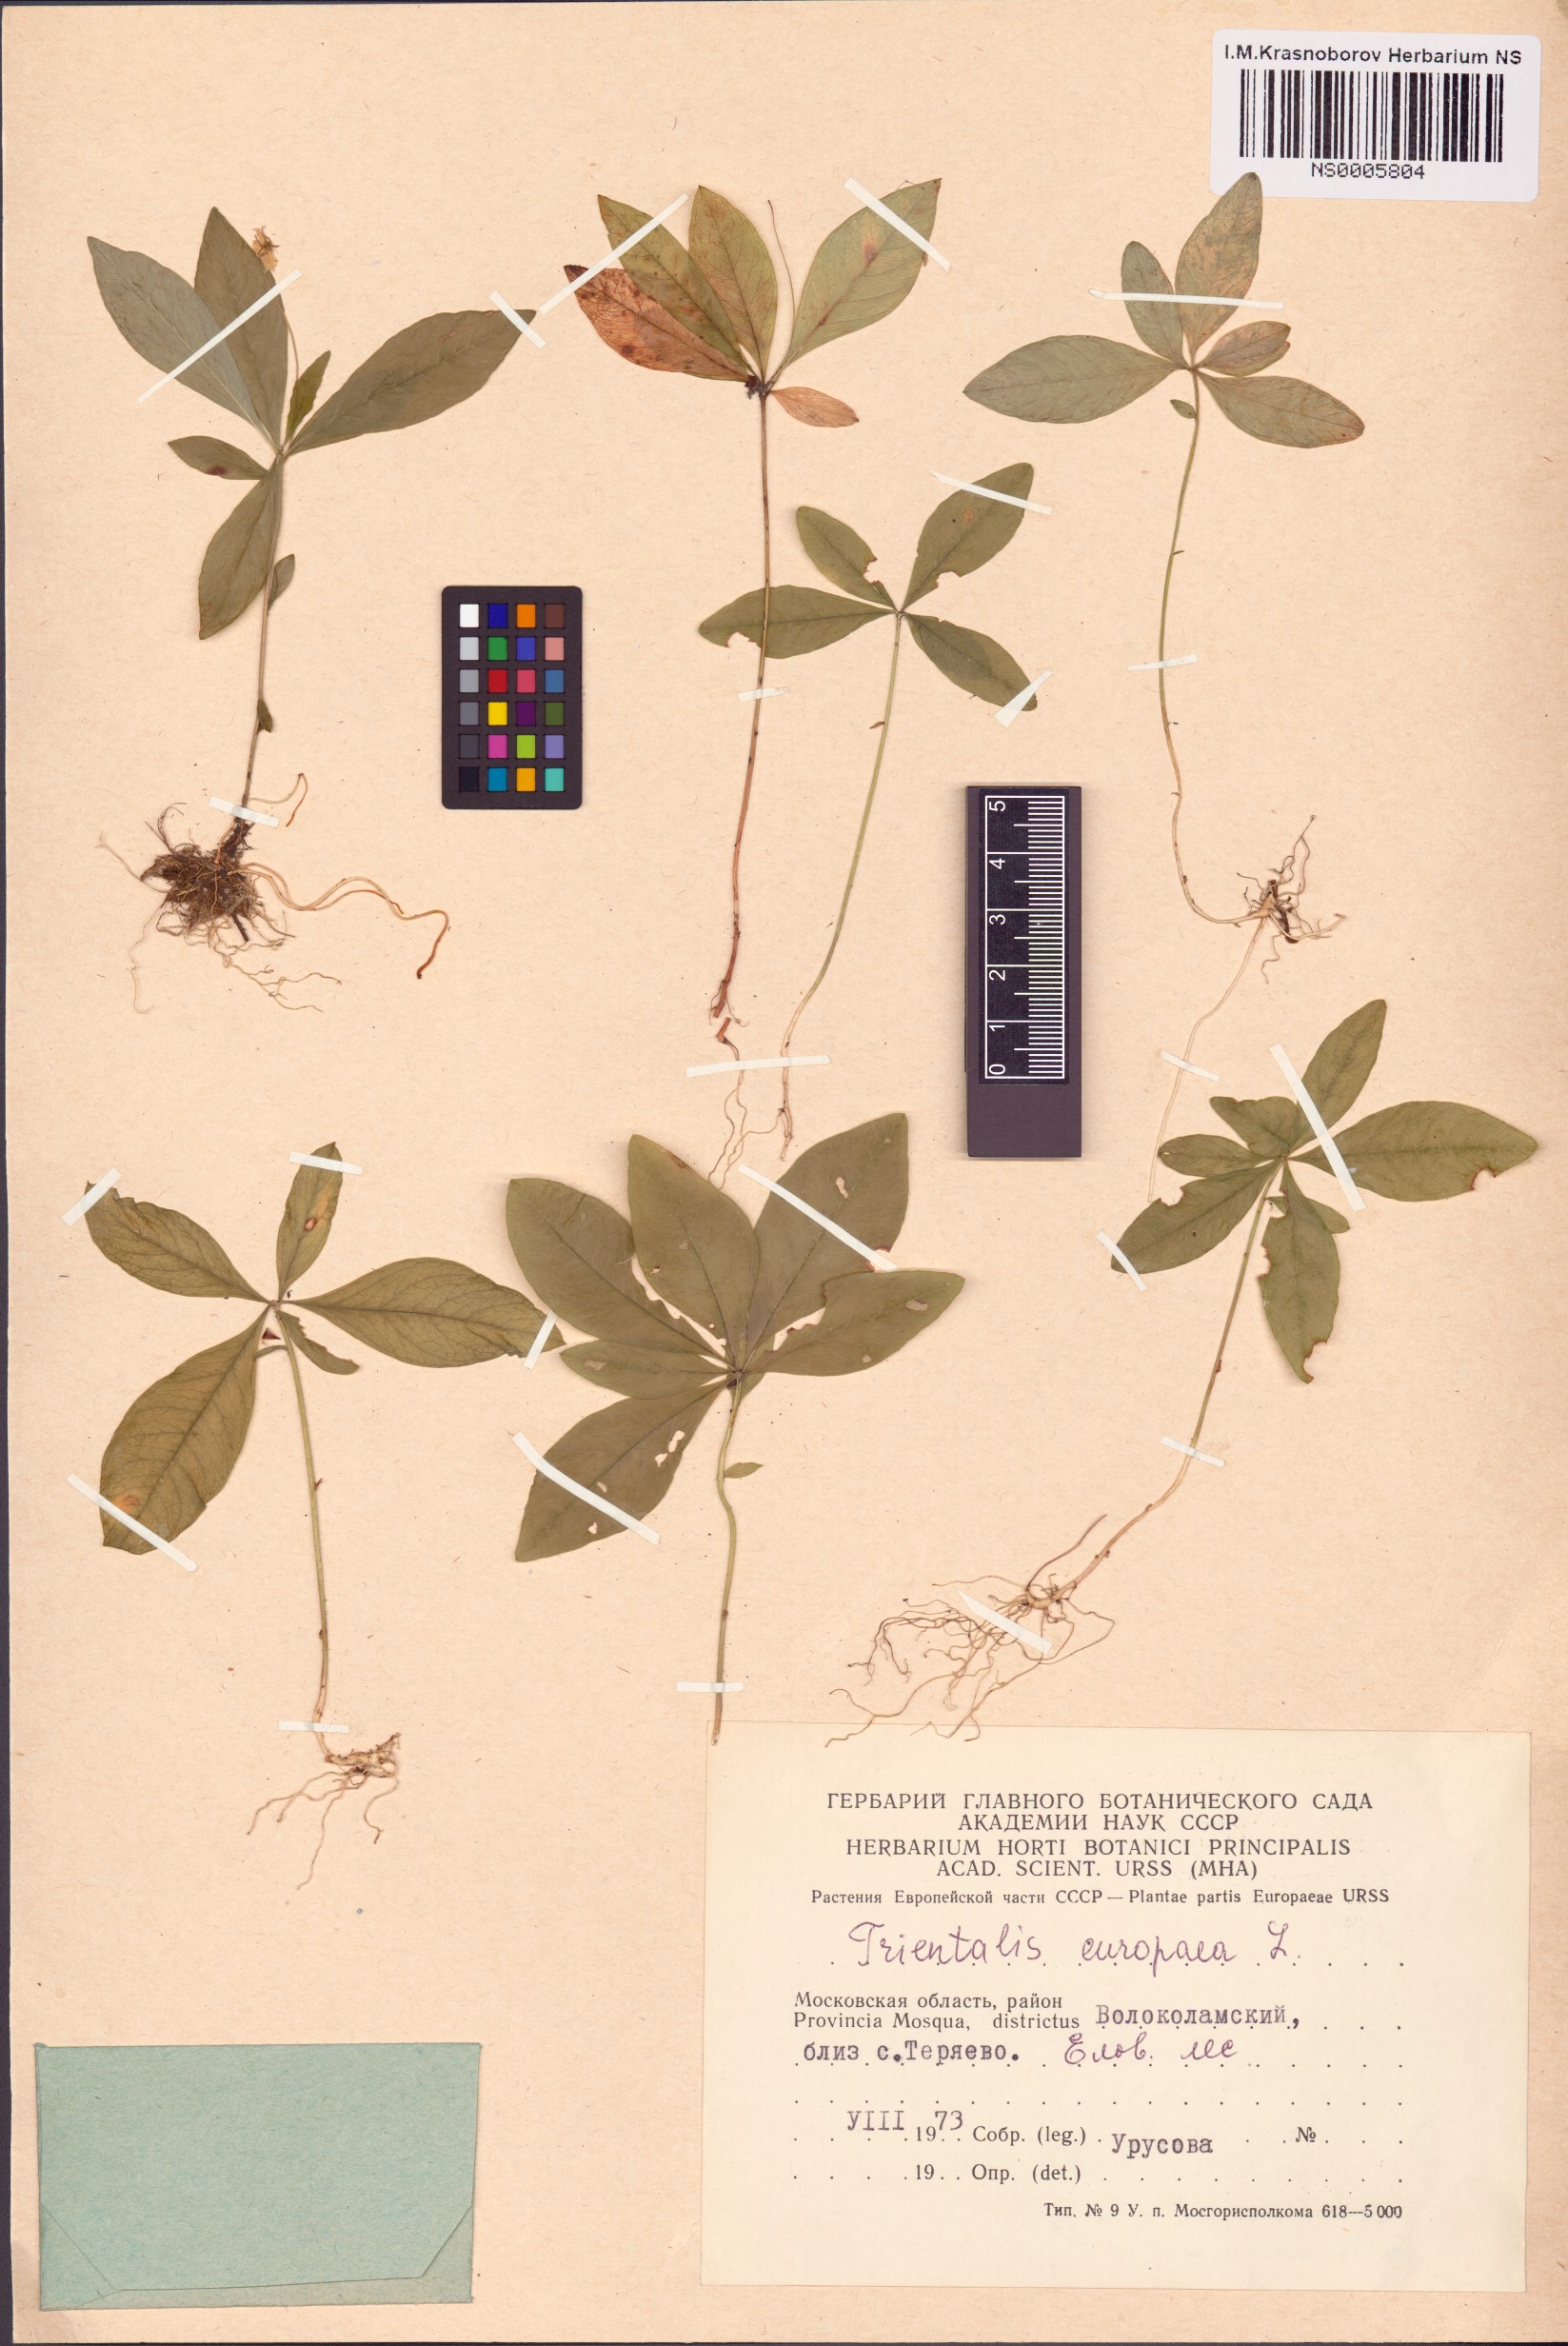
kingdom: Plantae
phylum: Tracheophyta
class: Magnoliopsida
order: Ericales
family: Primulaceae
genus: Lysimachia
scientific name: Lysimachia europaea
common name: Arctic starflower
